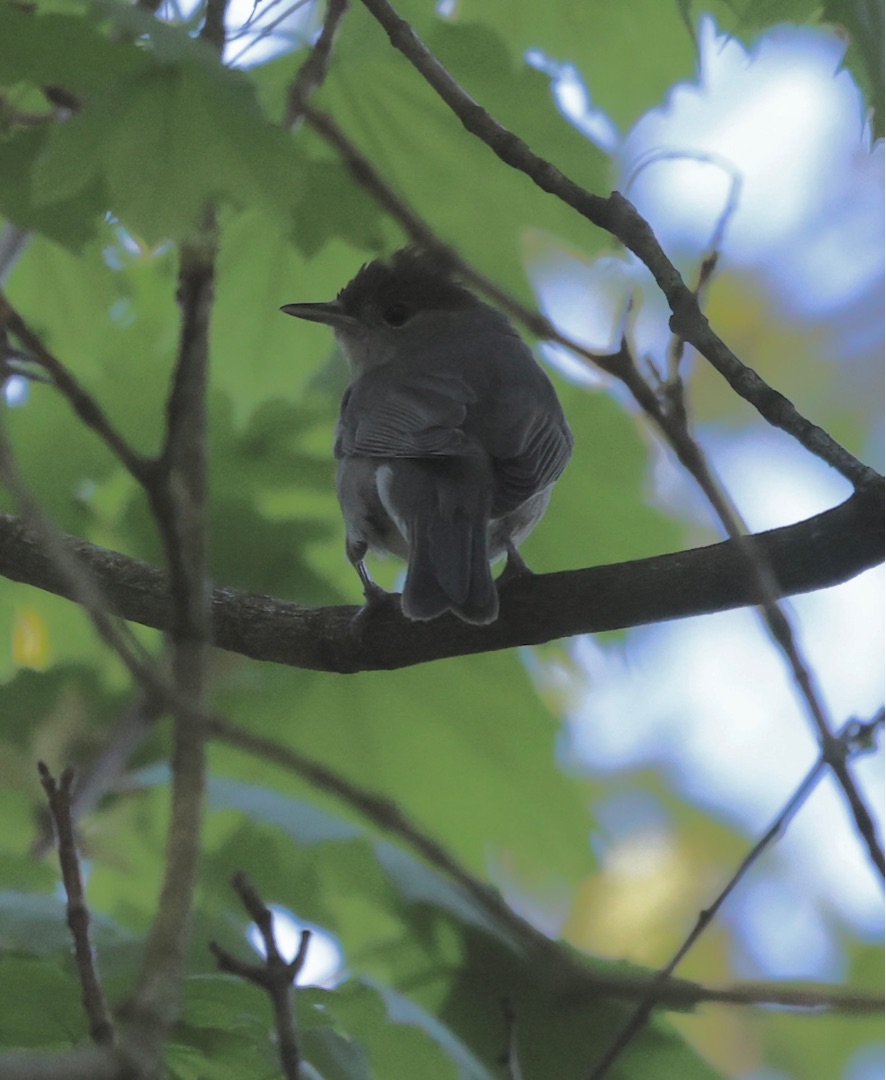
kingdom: Animalia
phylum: Chordata
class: Aves
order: Passeriformes
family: Sylviidae
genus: Sylvia
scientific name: Sylvia atricapilla
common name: Munk
